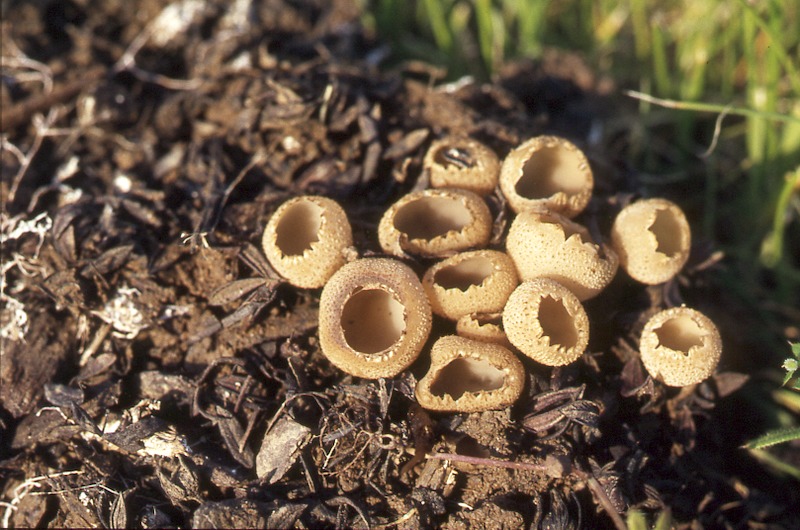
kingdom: Fungi
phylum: Ascomycota
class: Pezizomycetes
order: Pezizales
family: Pyronemataceae
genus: Tarzetta
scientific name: Tarzetta cupularis
